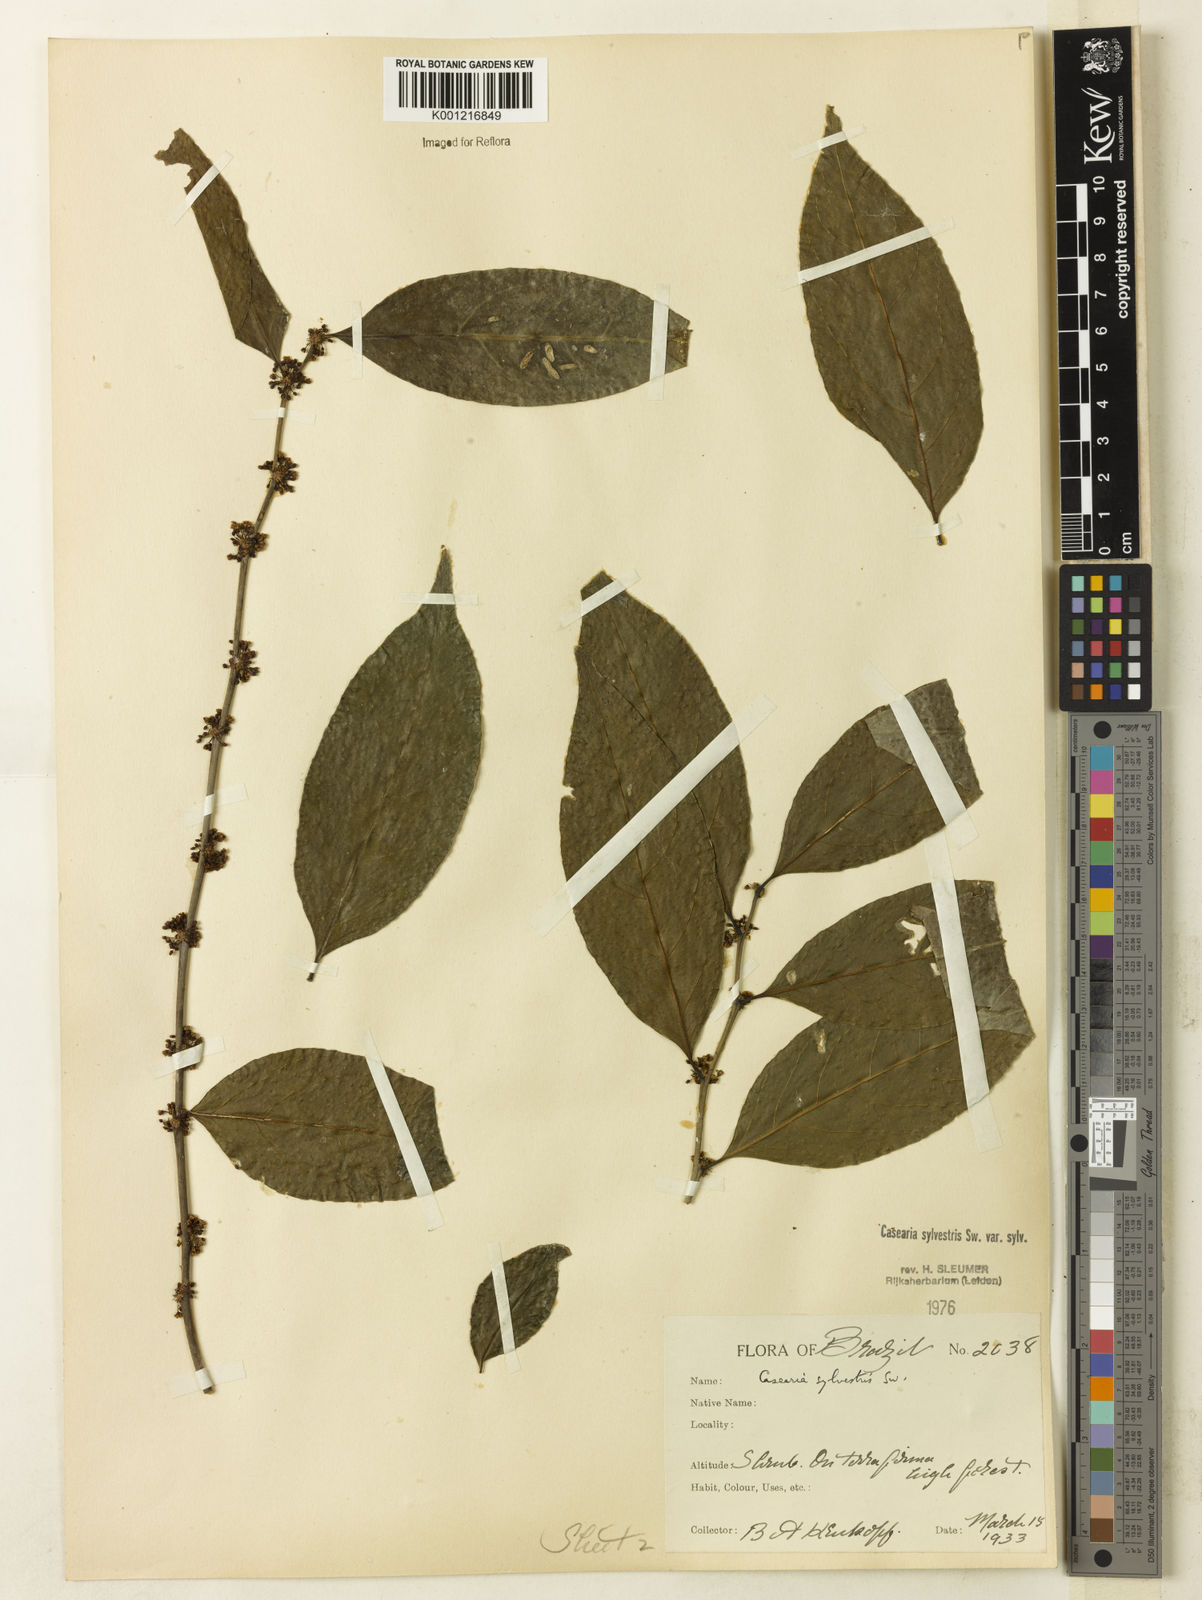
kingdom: Plantae
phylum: Tracheophyta
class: Magnoliopsida
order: Malpighiales
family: Salicaceae
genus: Casearia
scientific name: Casearia sylvestris
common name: Wild sage
